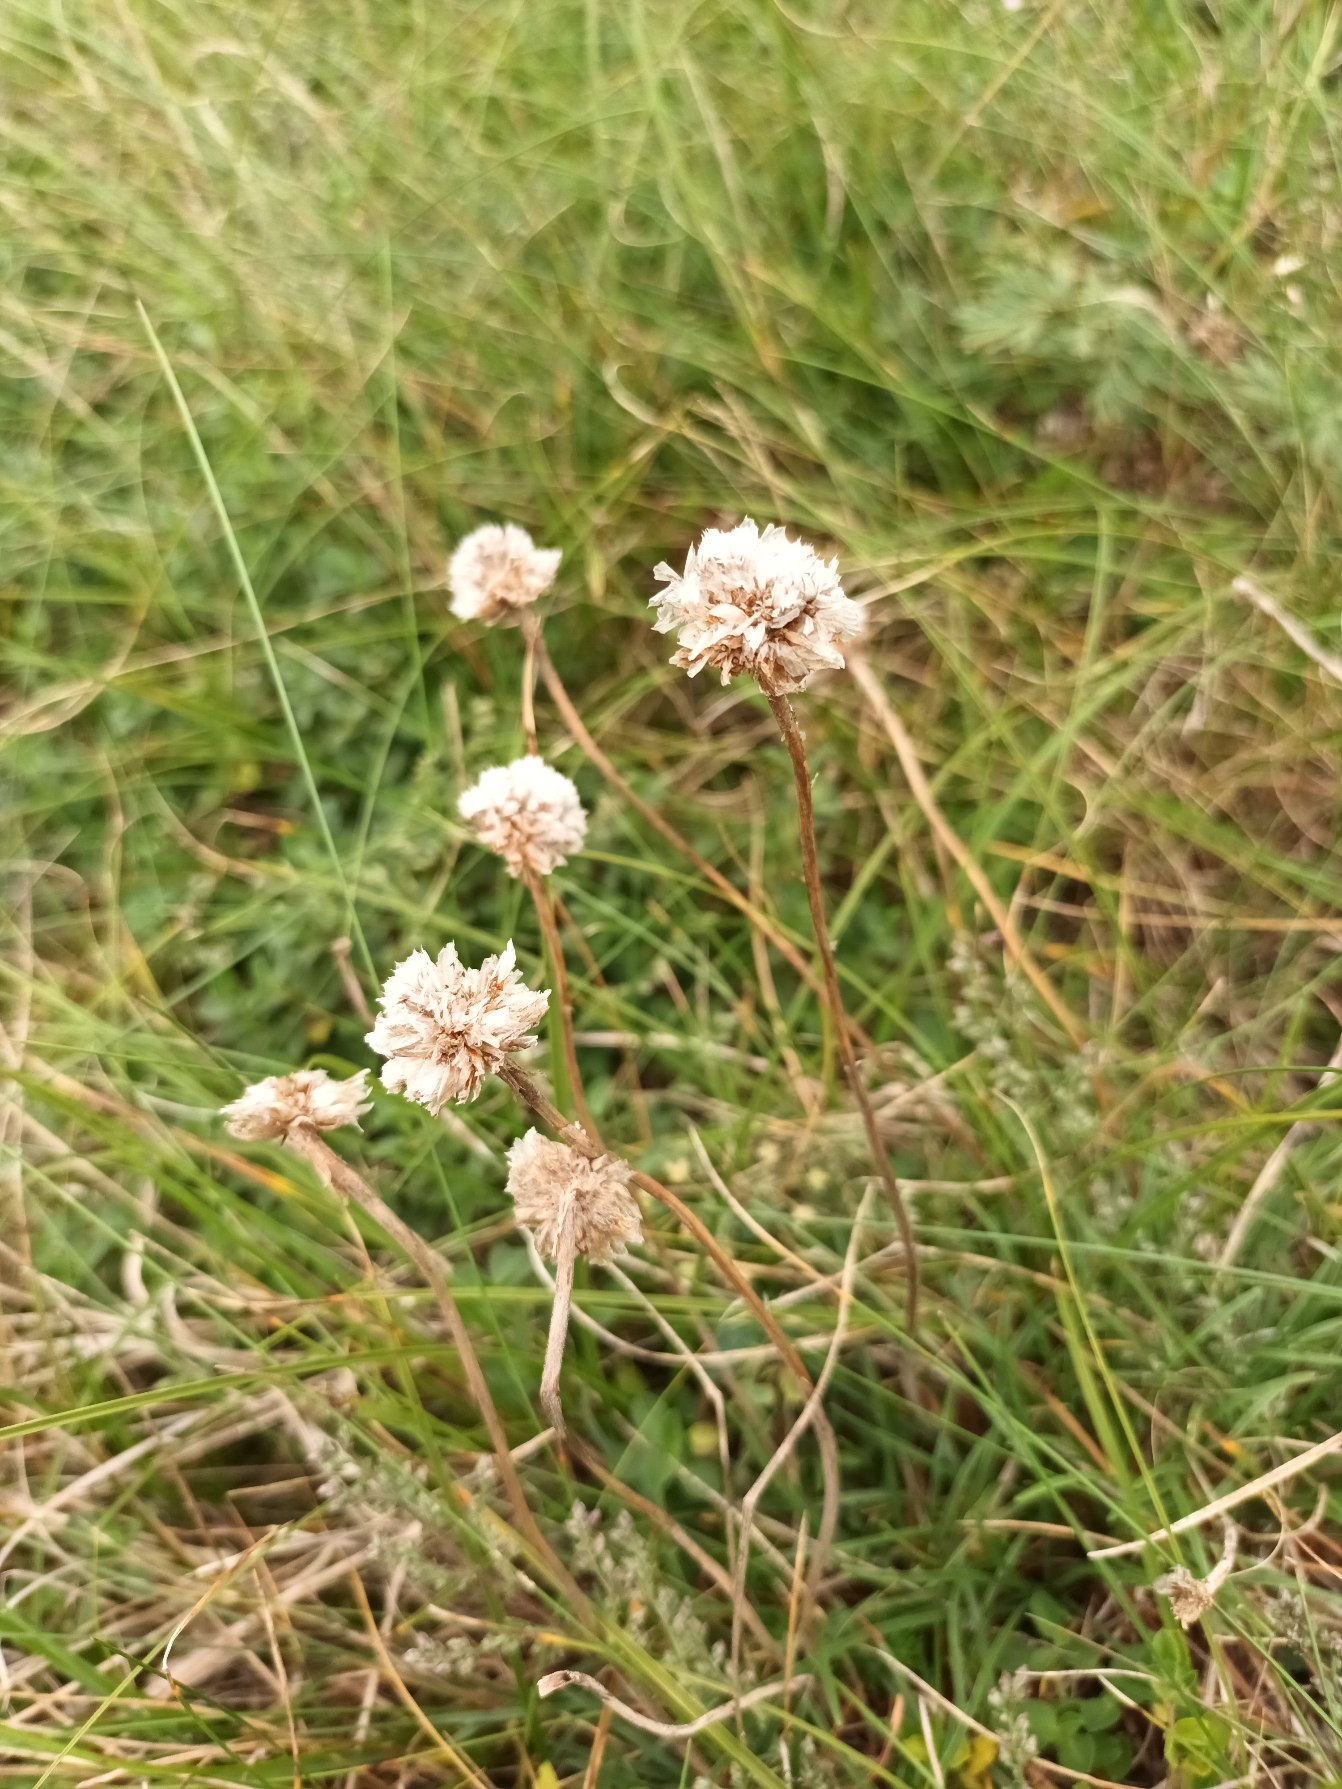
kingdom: Plantae
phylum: Tracheophyta
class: Magnoliopsida
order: Caryophyllales
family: Plumbaginaceae
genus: Armeria
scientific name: Armeria maritima
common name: Engelskgræs
